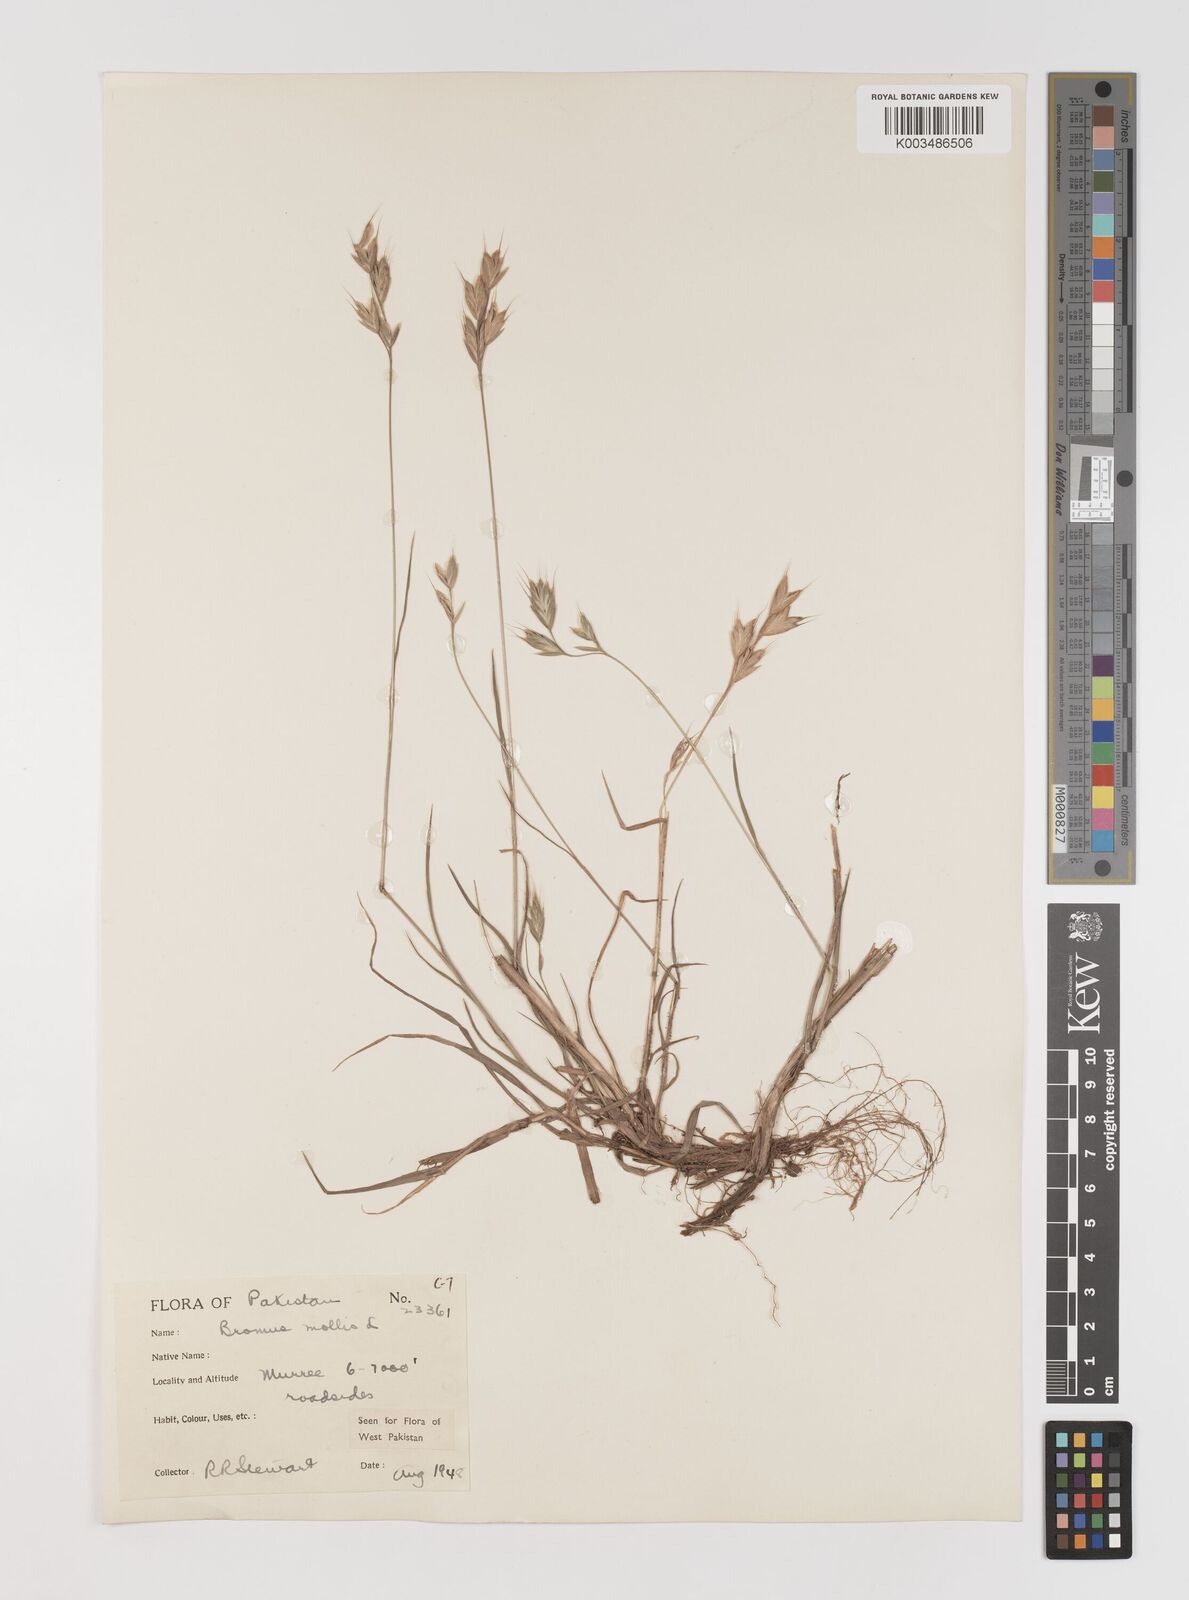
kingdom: Plantae
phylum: Tracheophyta
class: Liliopsida
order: Poales
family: Poaceae
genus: Bromus
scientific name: Bromus hordeaceus
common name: Soft brome
